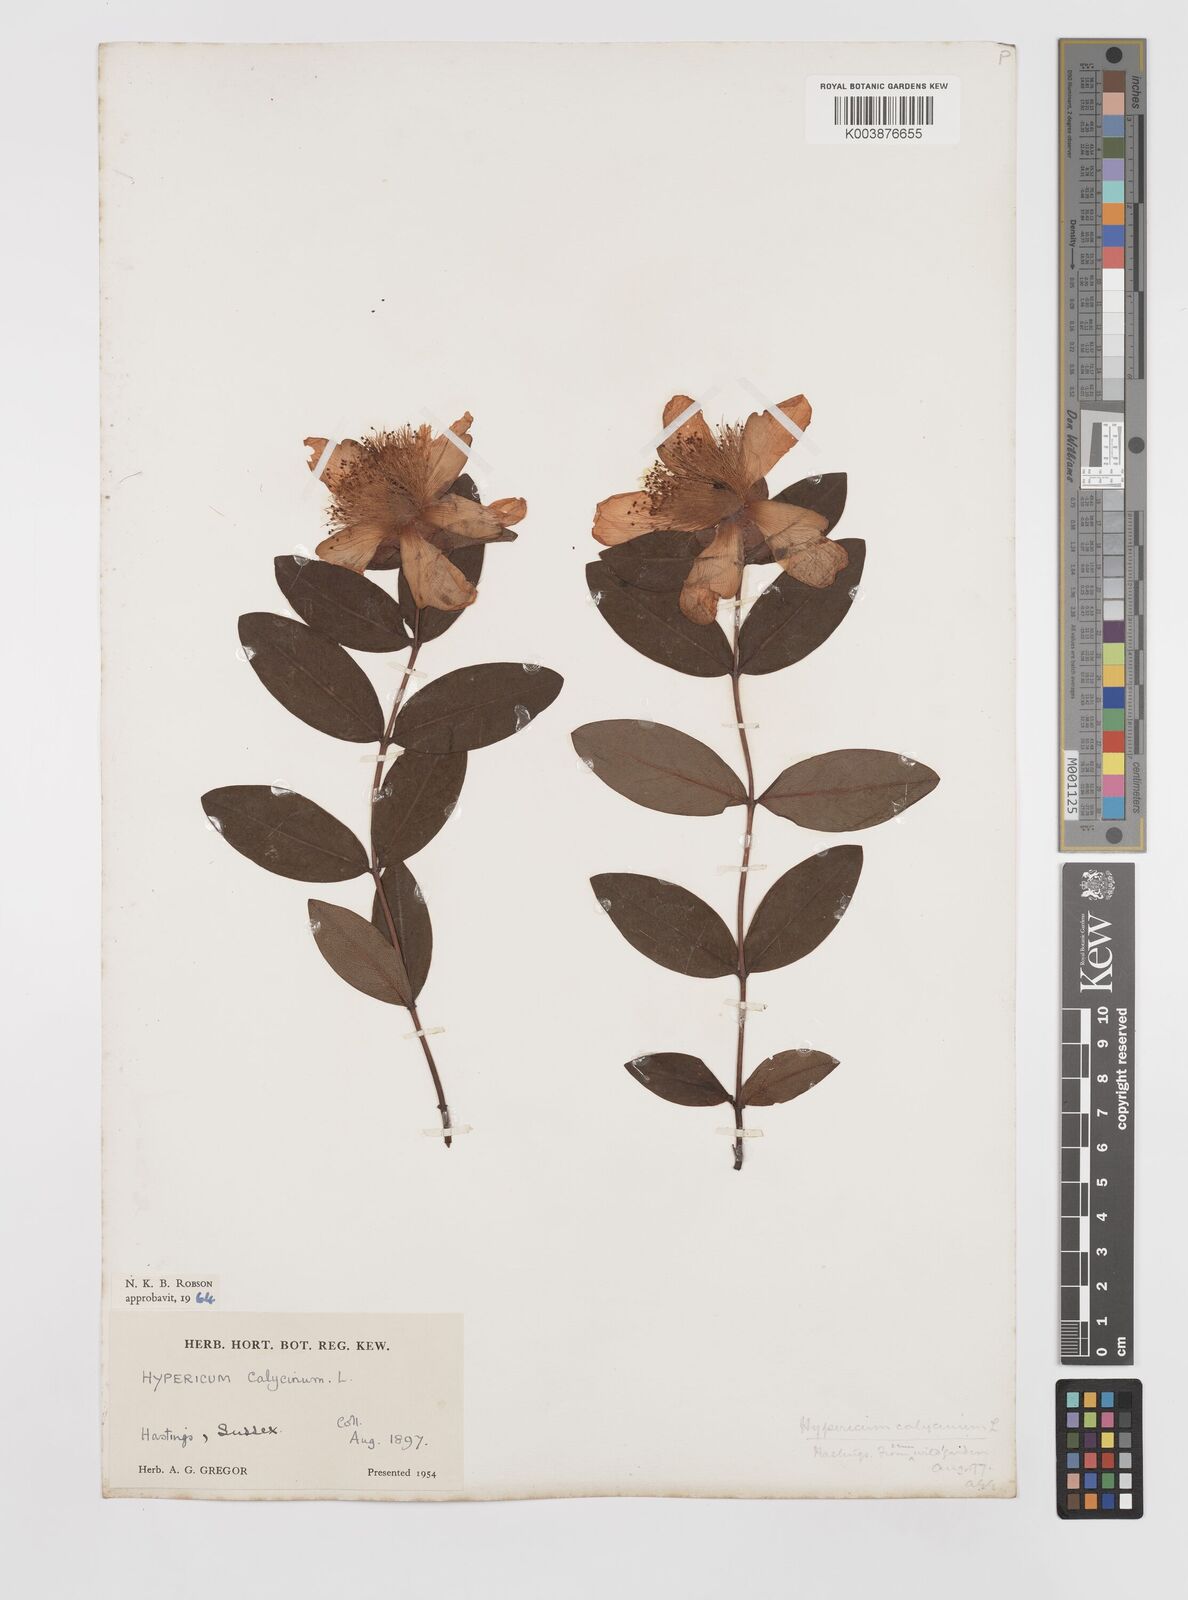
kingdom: Plantae
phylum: Tracheophyta
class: Magnoliopsida
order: Malpighiales
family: Hypericaceae
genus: Hypericum
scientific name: Hypericum calycinum
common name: Rose-of-sharon
